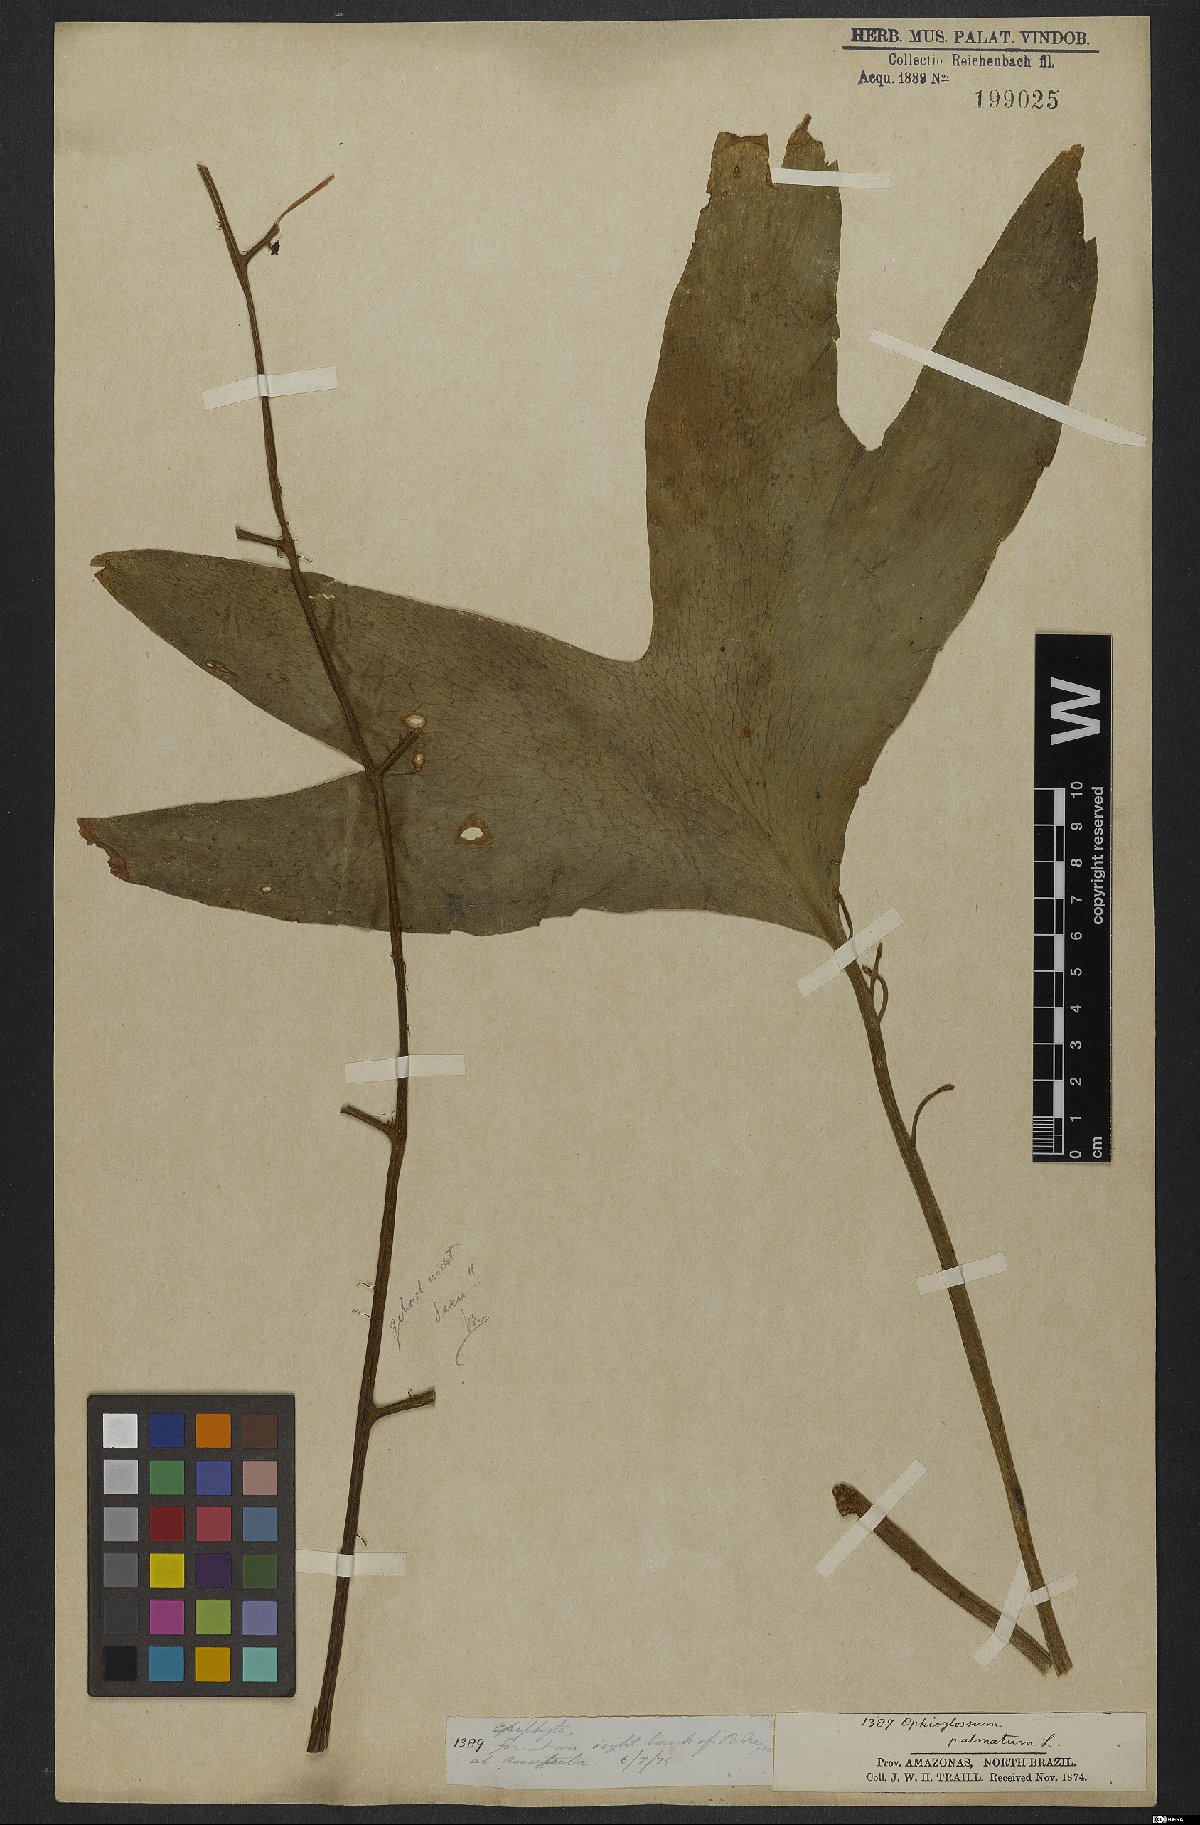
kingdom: Plantae
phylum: Tracheophyta
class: Polypodiopsida
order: Ophioglossales
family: Ophioglossaceae
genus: Cheiroglossa
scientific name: Cheiroglossa palmata
